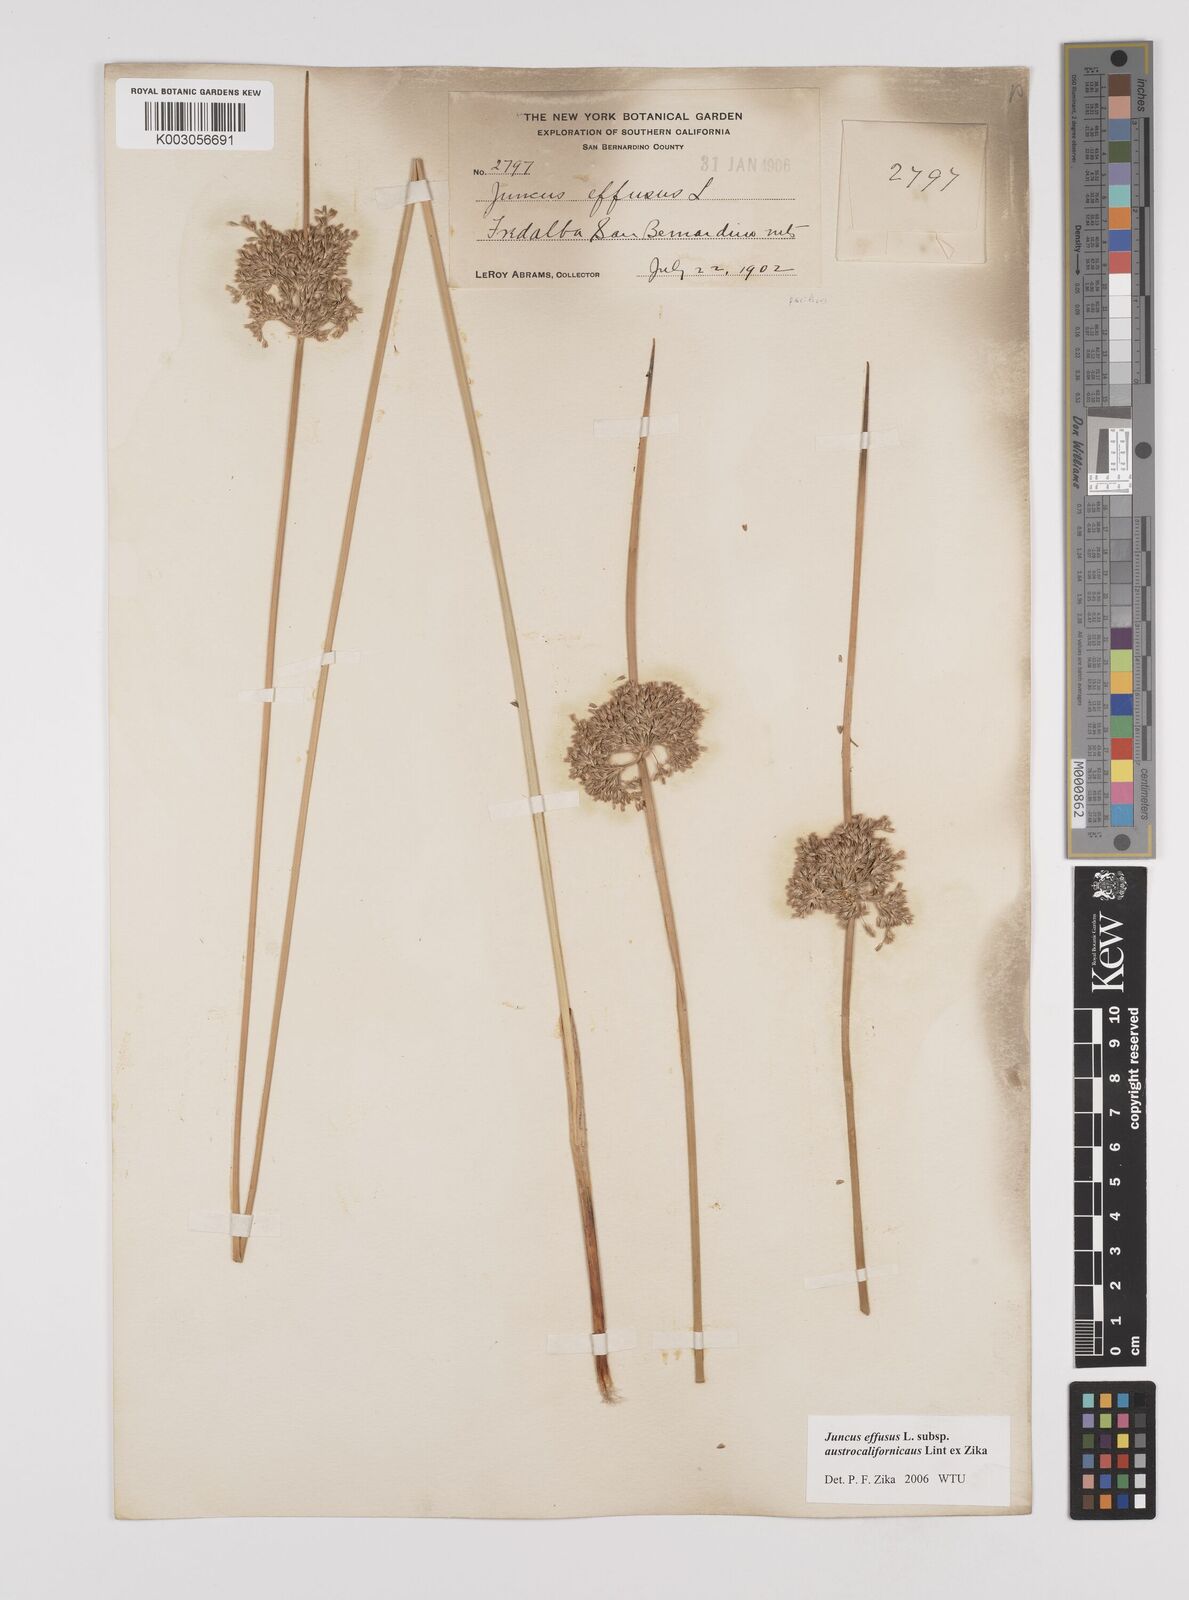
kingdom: Plantae
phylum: Tracheophyta
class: Liliopsida
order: Poales
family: Juncaceae
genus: Juncus
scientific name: Juncus effusus
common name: Soft rush
